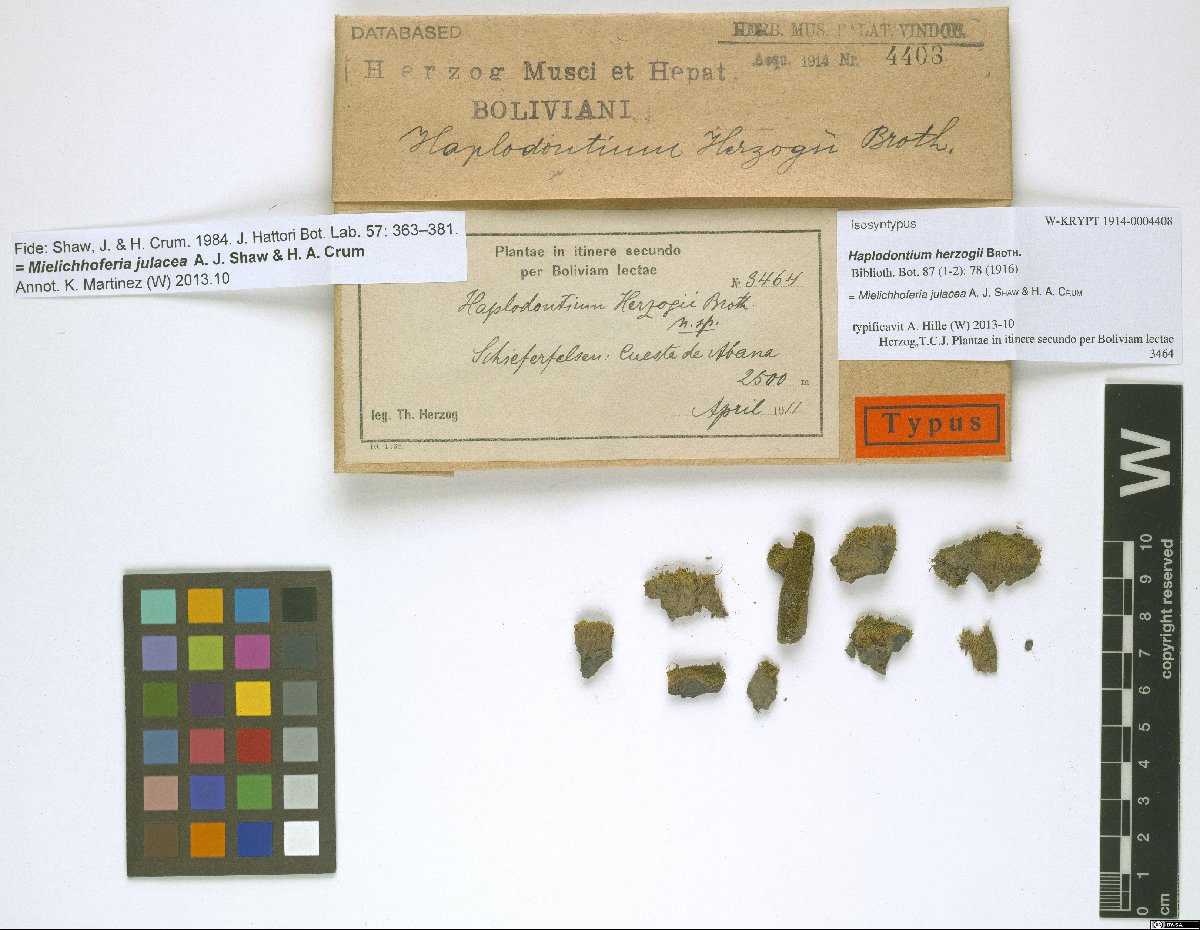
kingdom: Plantae
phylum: Bryophyta
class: Bryopsida
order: Bryales
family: Mniaceae
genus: Mielichhoferia
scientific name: Mielichhoferia julacea
